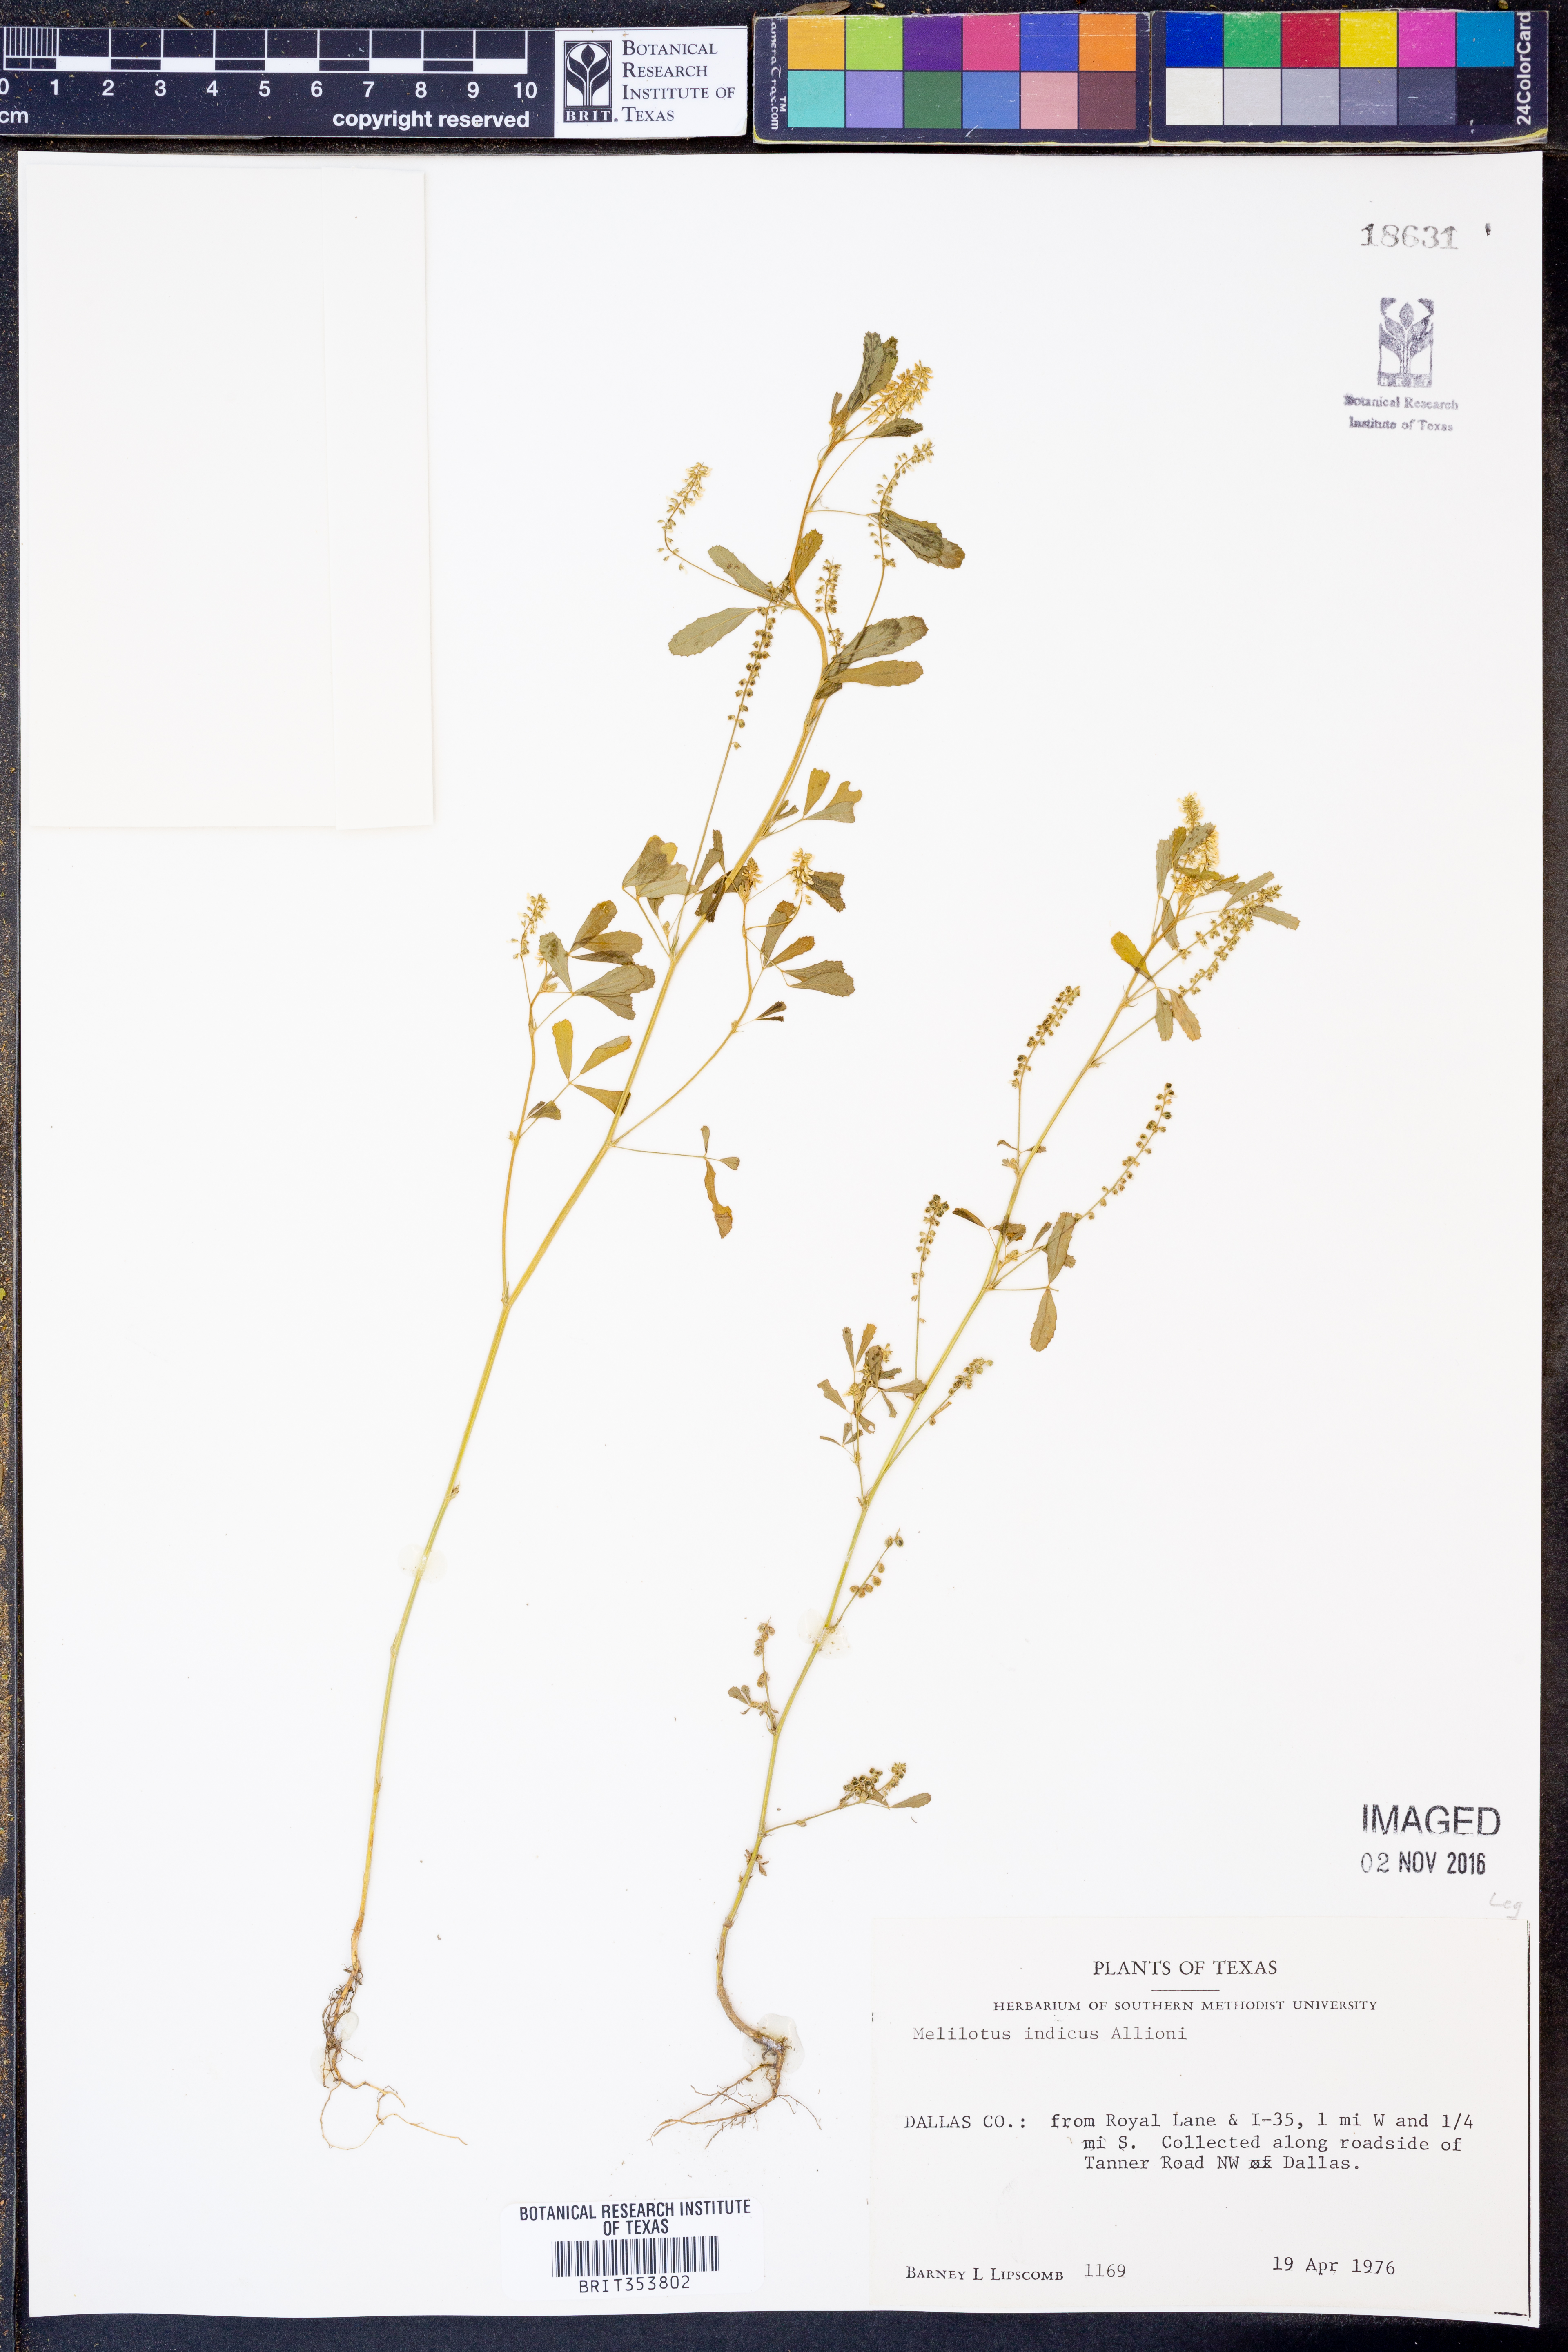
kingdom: Plantae
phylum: Tracheophyta
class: Magnoliopsida
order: Fabales
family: Fabaceae
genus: Melilotus
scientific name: Melilotus indicus
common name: Small melilot
